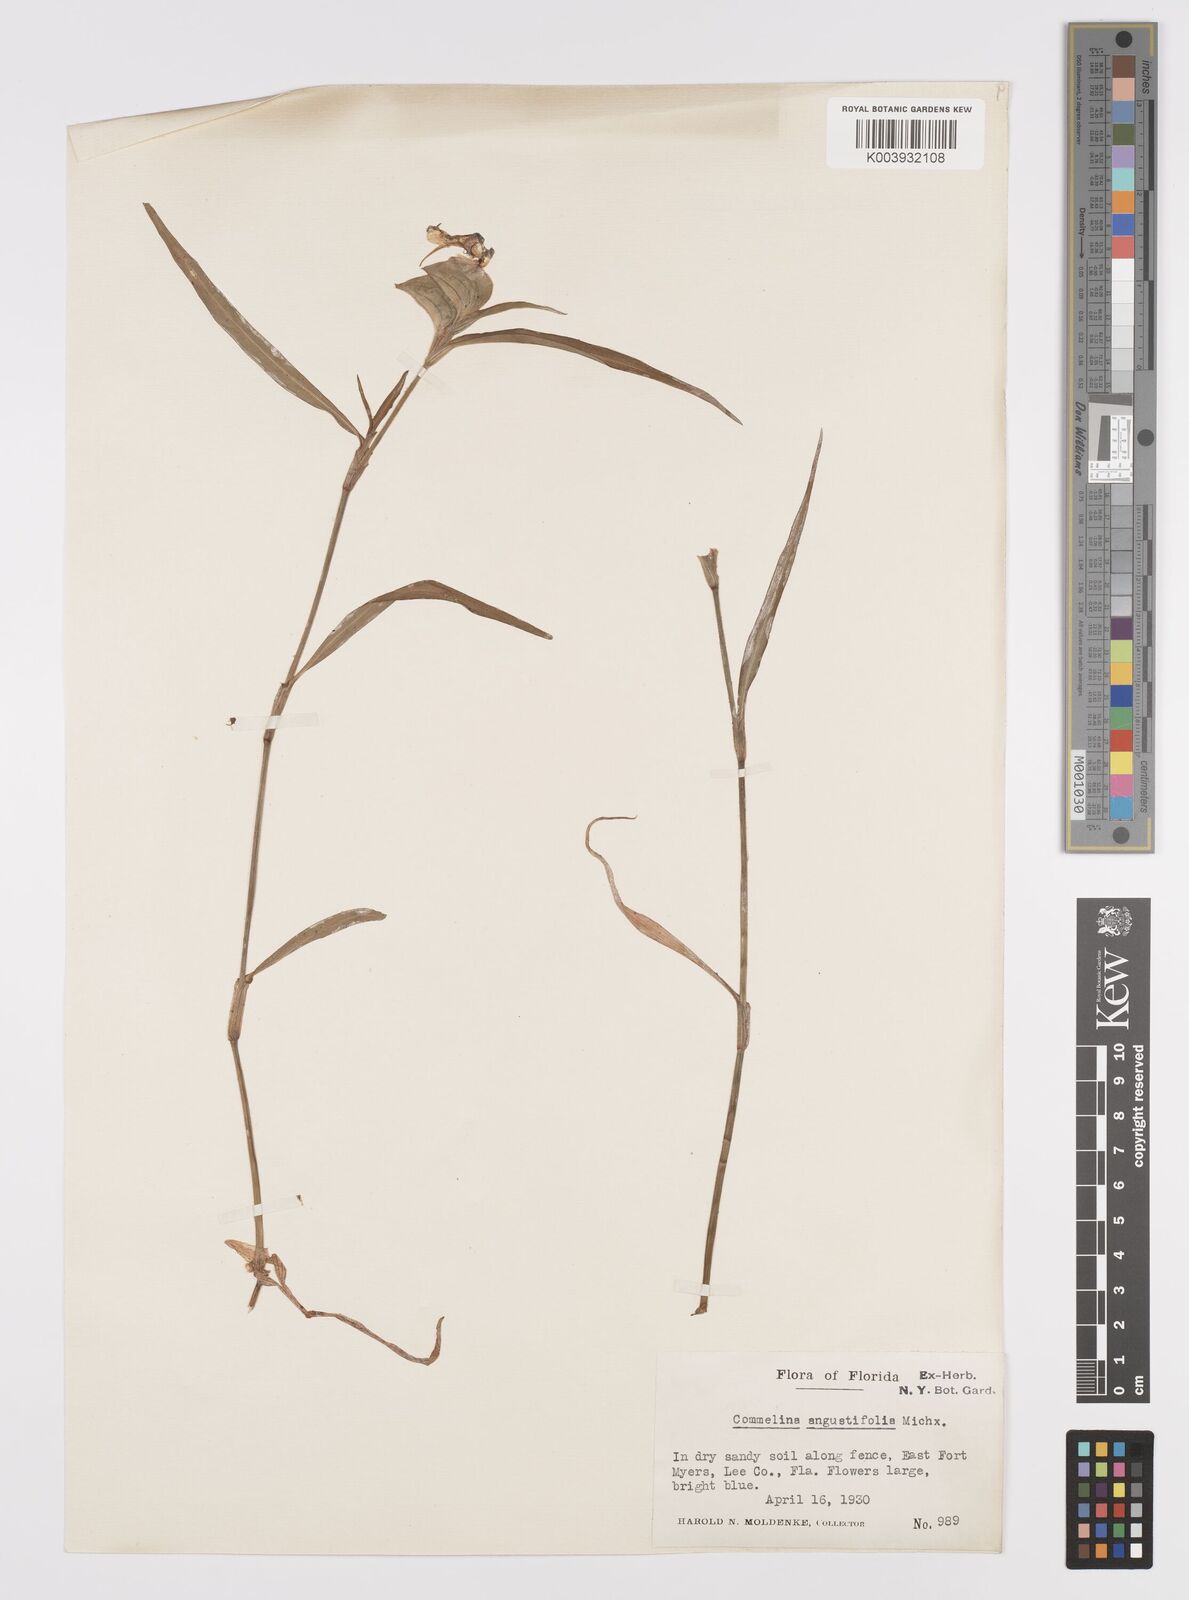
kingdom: Plantae
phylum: Tracheophyta
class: Liliopsida
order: Commelinales
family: Commelinaceae
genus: Commelina
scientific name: Commelina erecta
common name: Blousel blommetjie
